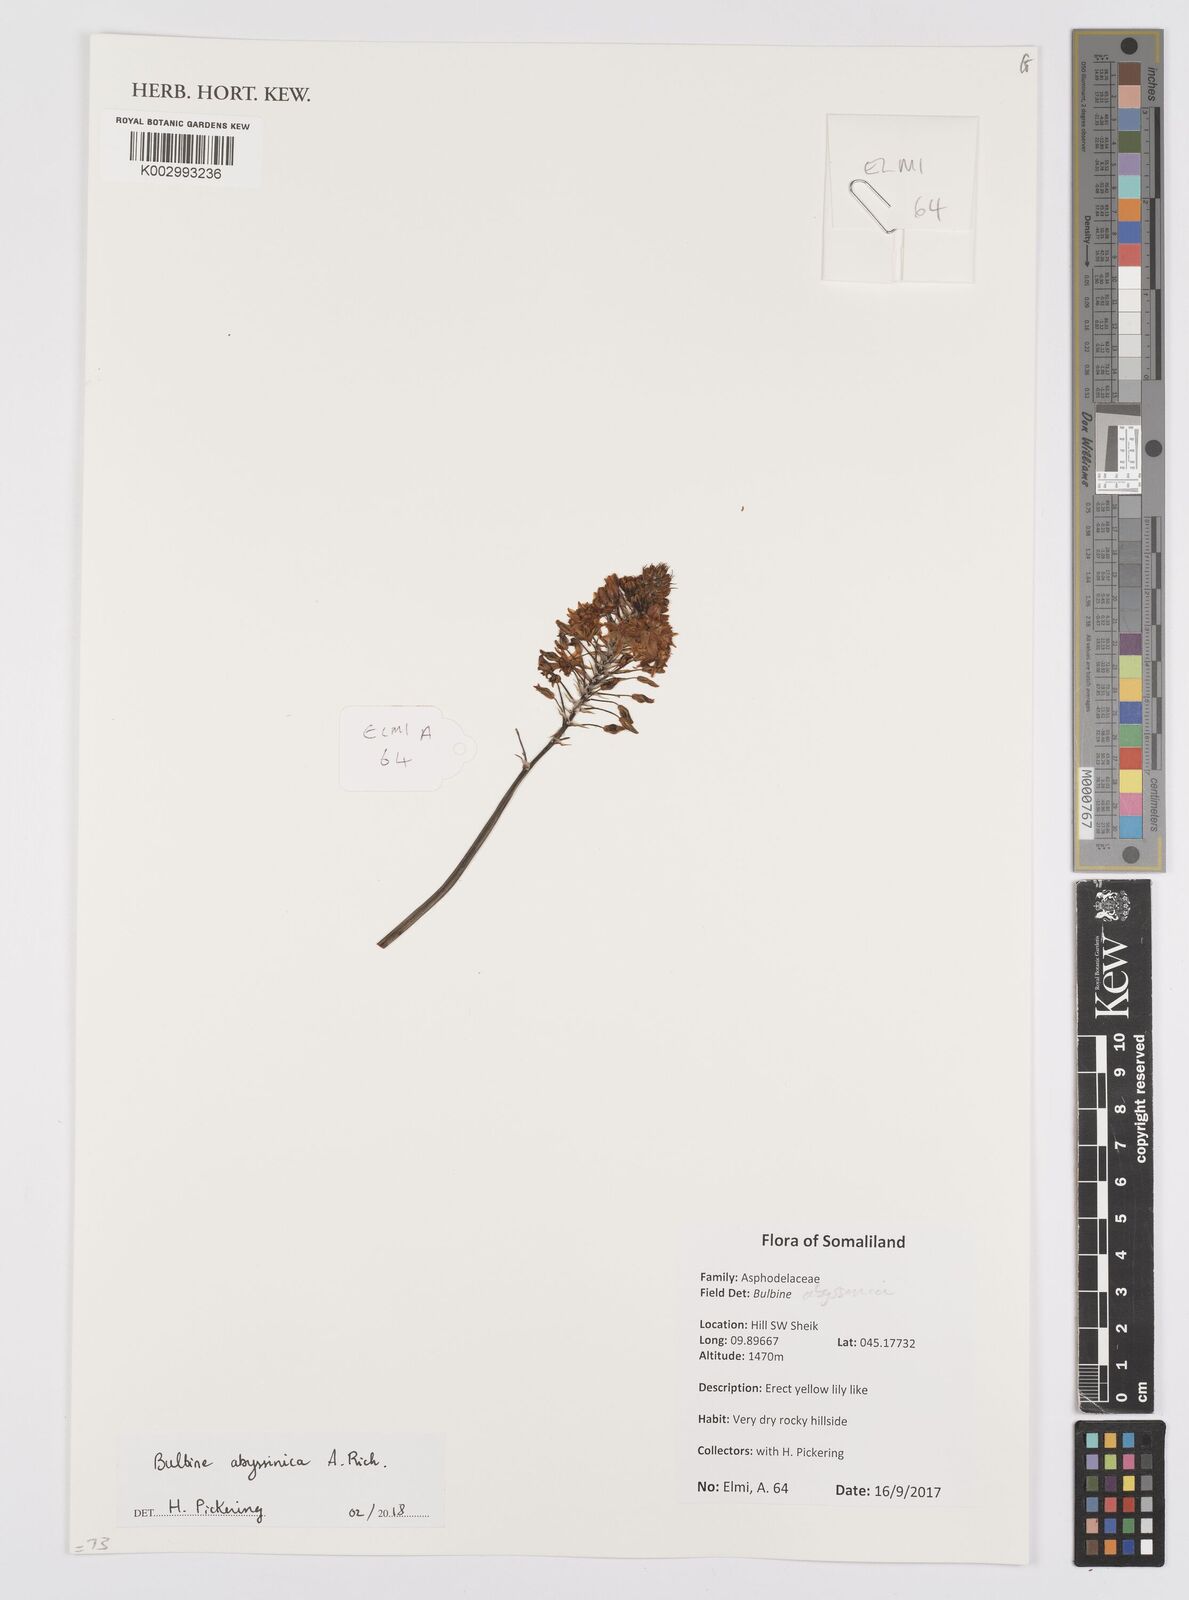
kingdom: Plantae
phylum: Tracheophyta
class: Liliopsida
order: Asparagales
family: Asphodelaceae
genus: Bulbine
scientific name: Bulbine abyssinica
